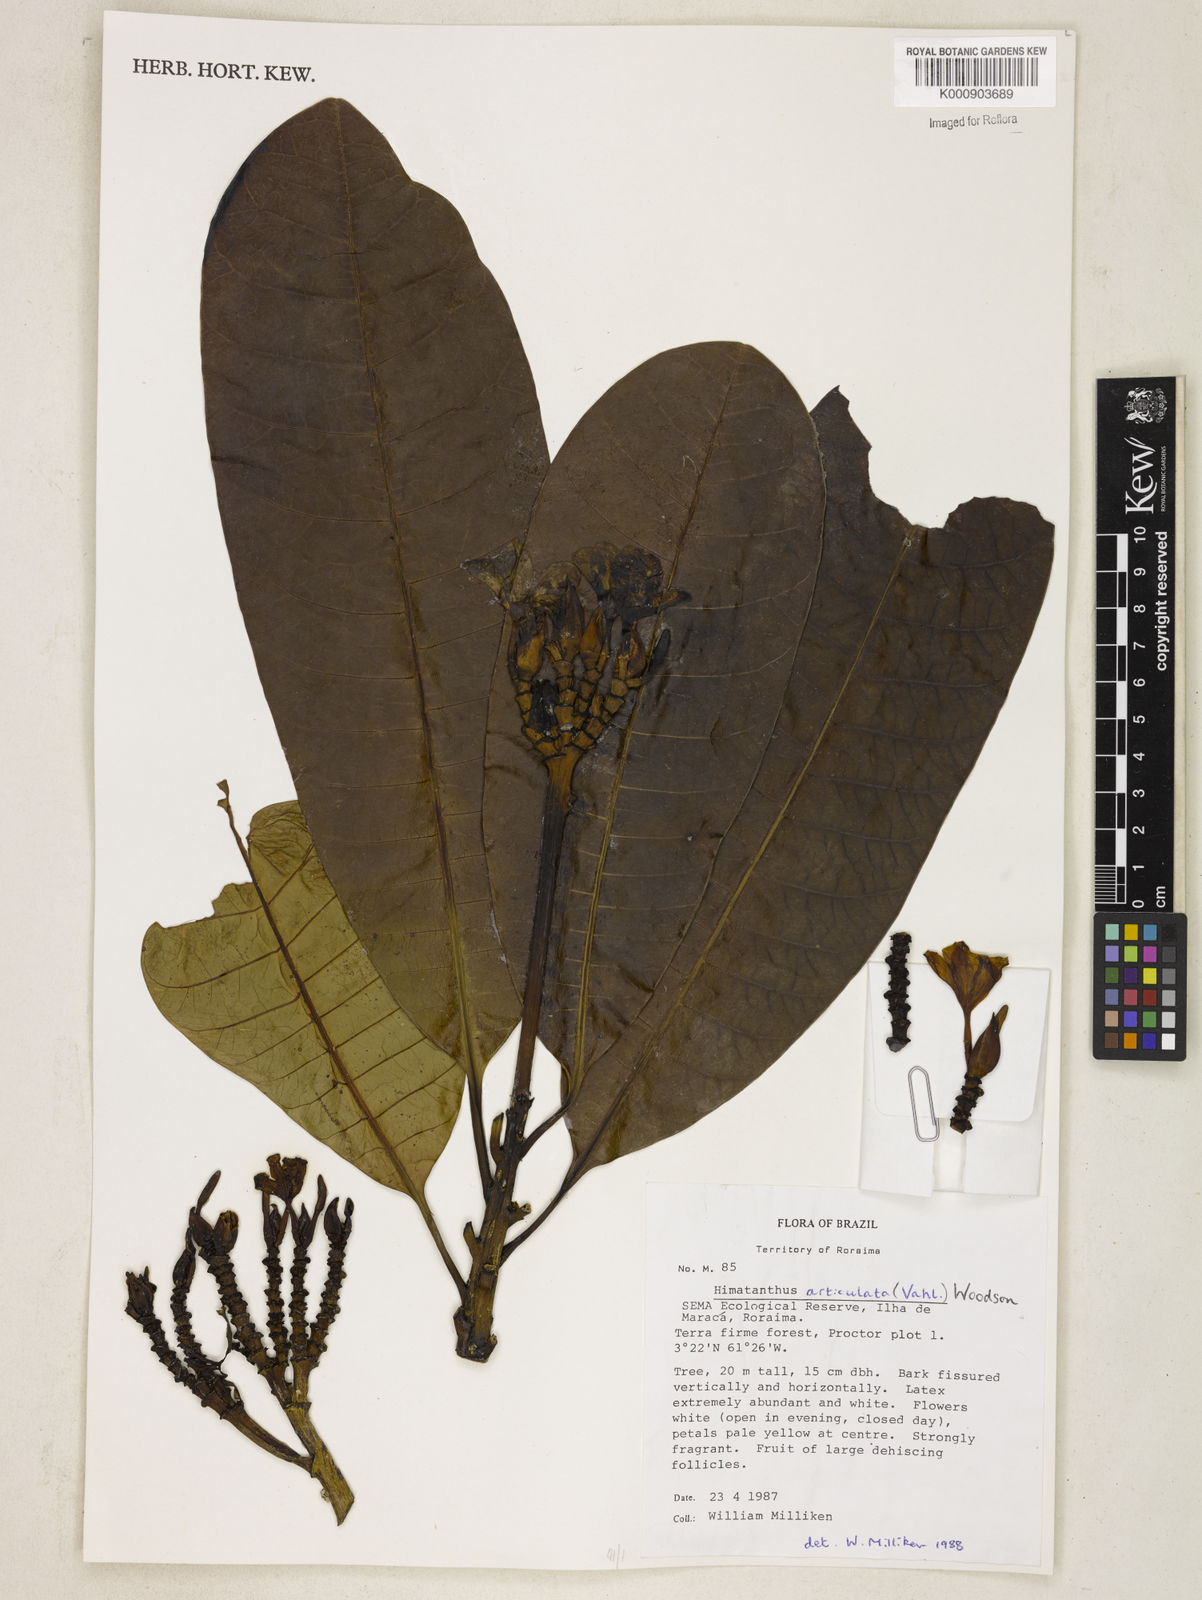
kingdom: Plantae
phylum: Tracheophyta
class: Magnoliopsida
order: Gentianales
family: Apocynaceae
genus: Himatanthus
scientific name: Himatanthus articulatus
